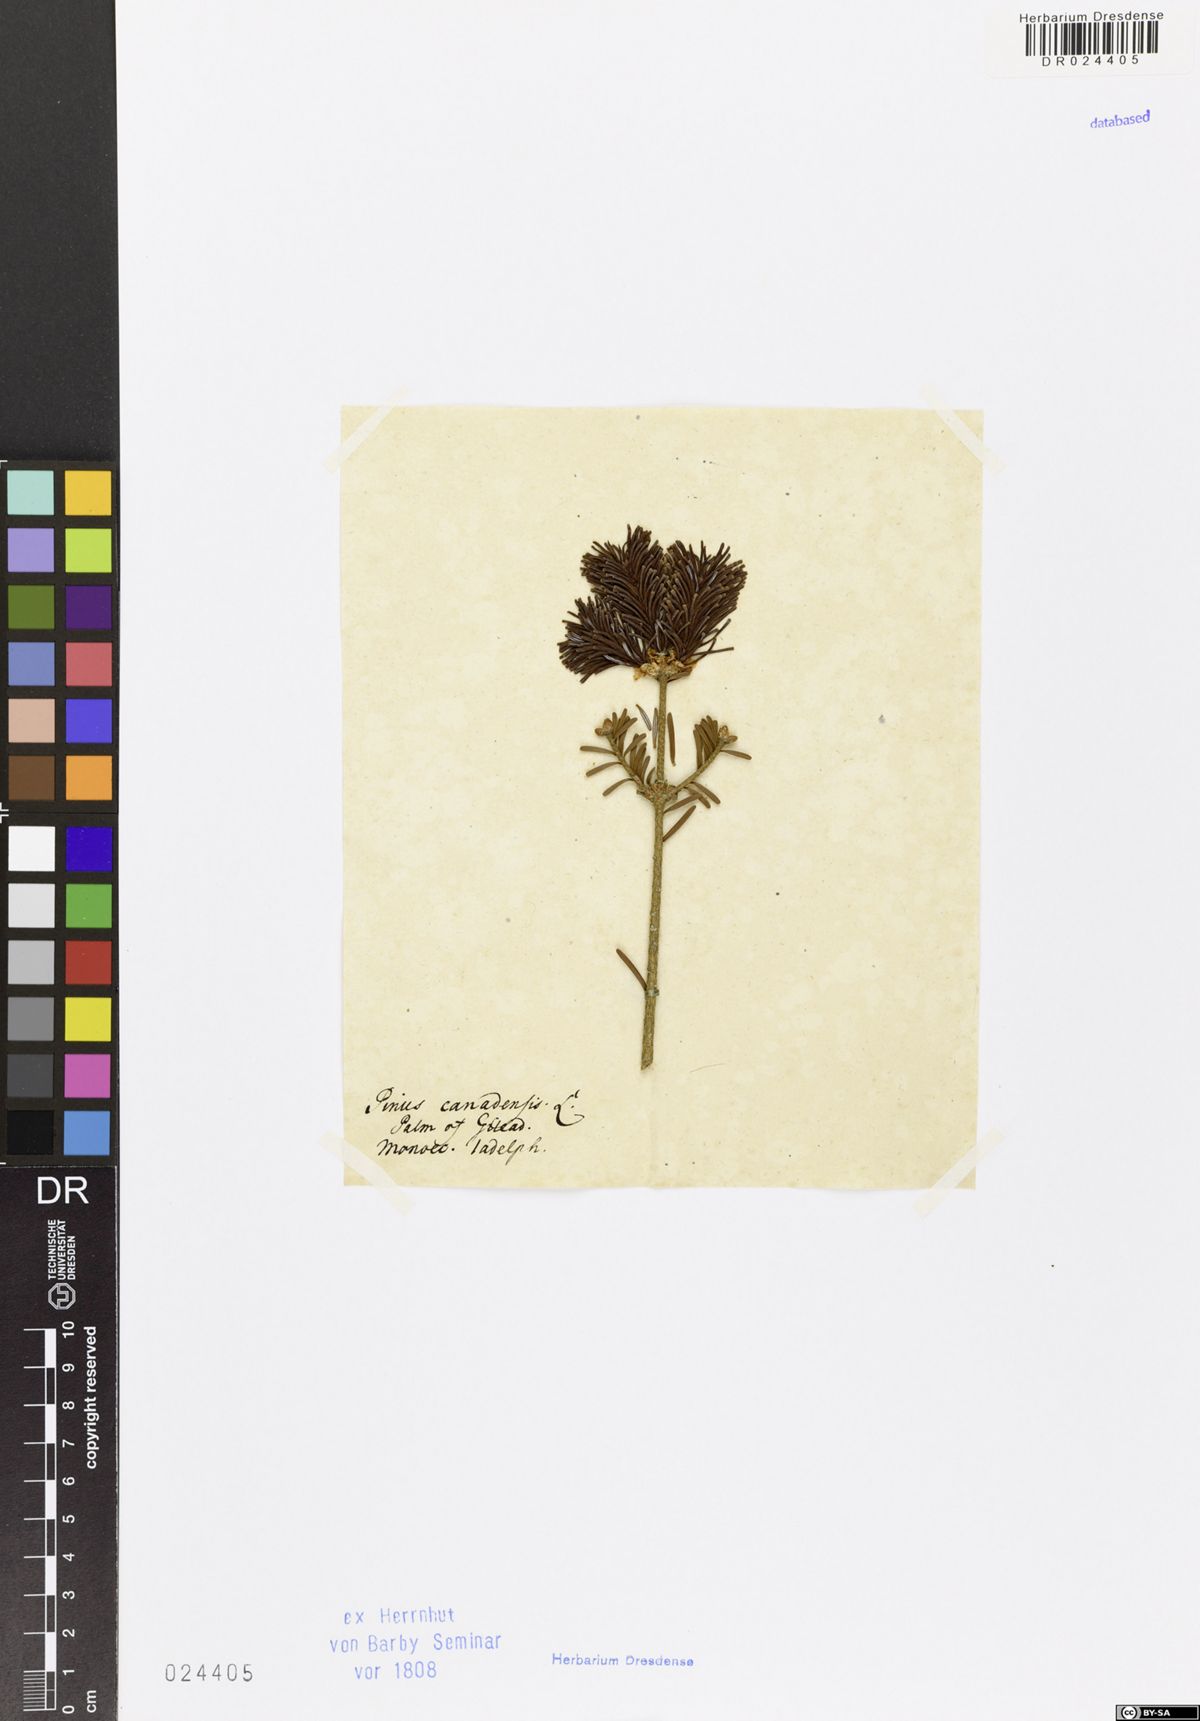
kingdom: Plantae
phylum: Tracheophyta
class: Pinopsida
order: Pinales
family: Pinaceae
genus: Tsuga
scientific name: Tsuga canadensis
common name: Eastern hemlock
